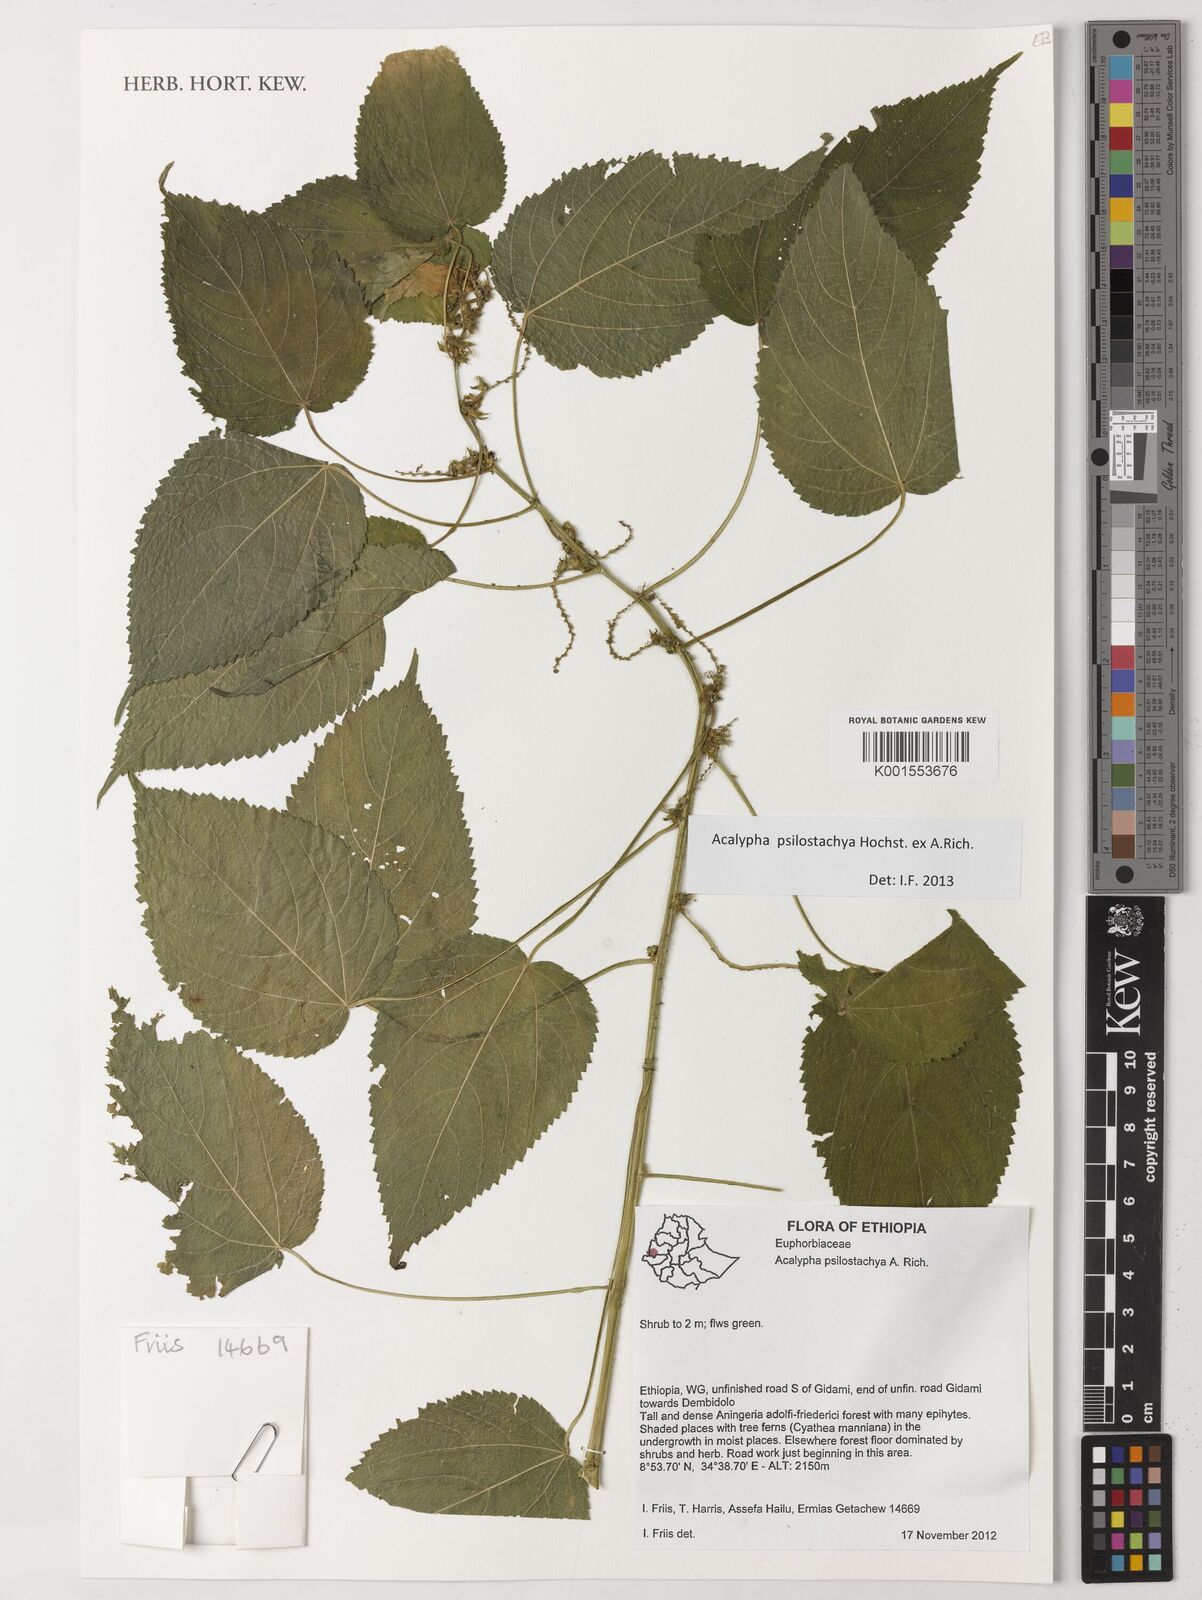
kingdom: Plantae
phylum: Tracheophyta
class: Magnoliopsida
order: Malpighiales
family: Euphorbiaceae
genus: Acalypha
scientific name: Acalypha psilostachya
